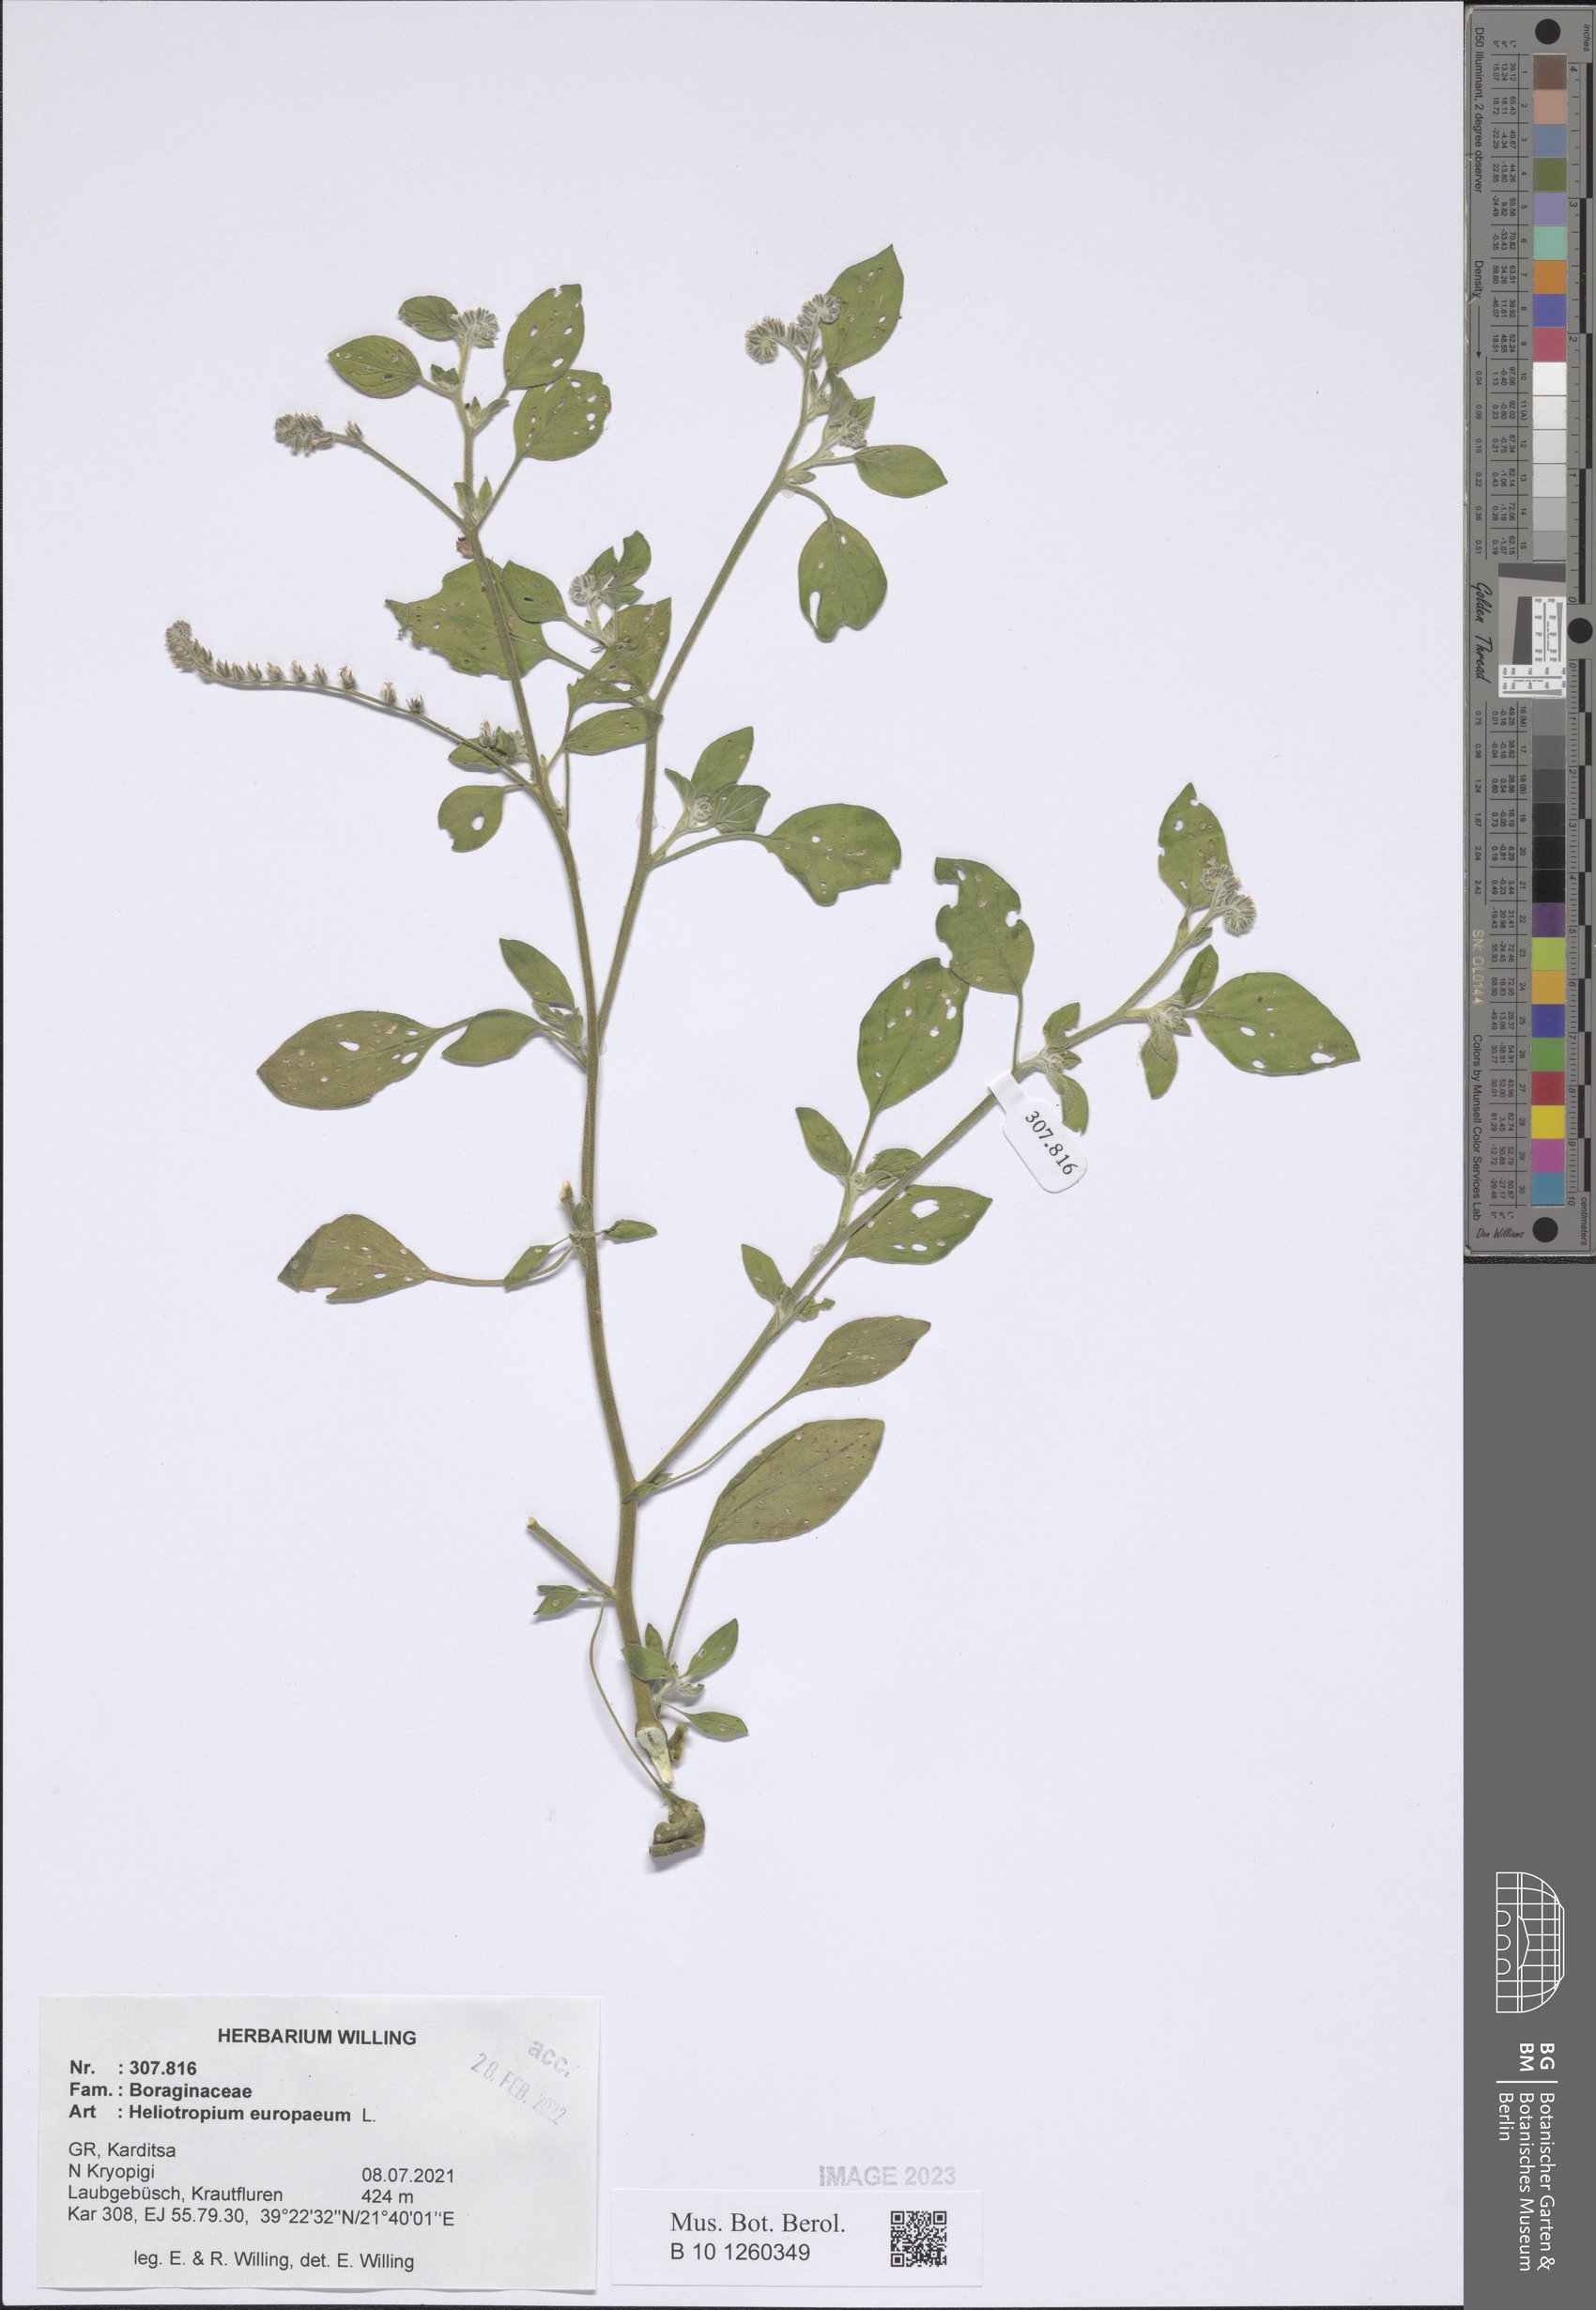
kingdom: Plantae
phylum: Tracheophyta
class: Magnoliopsida
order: Boraginales
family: Heliotropiaceae
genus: Heliotropium
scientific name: Heliotropium europaeum
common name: European heliotrope
